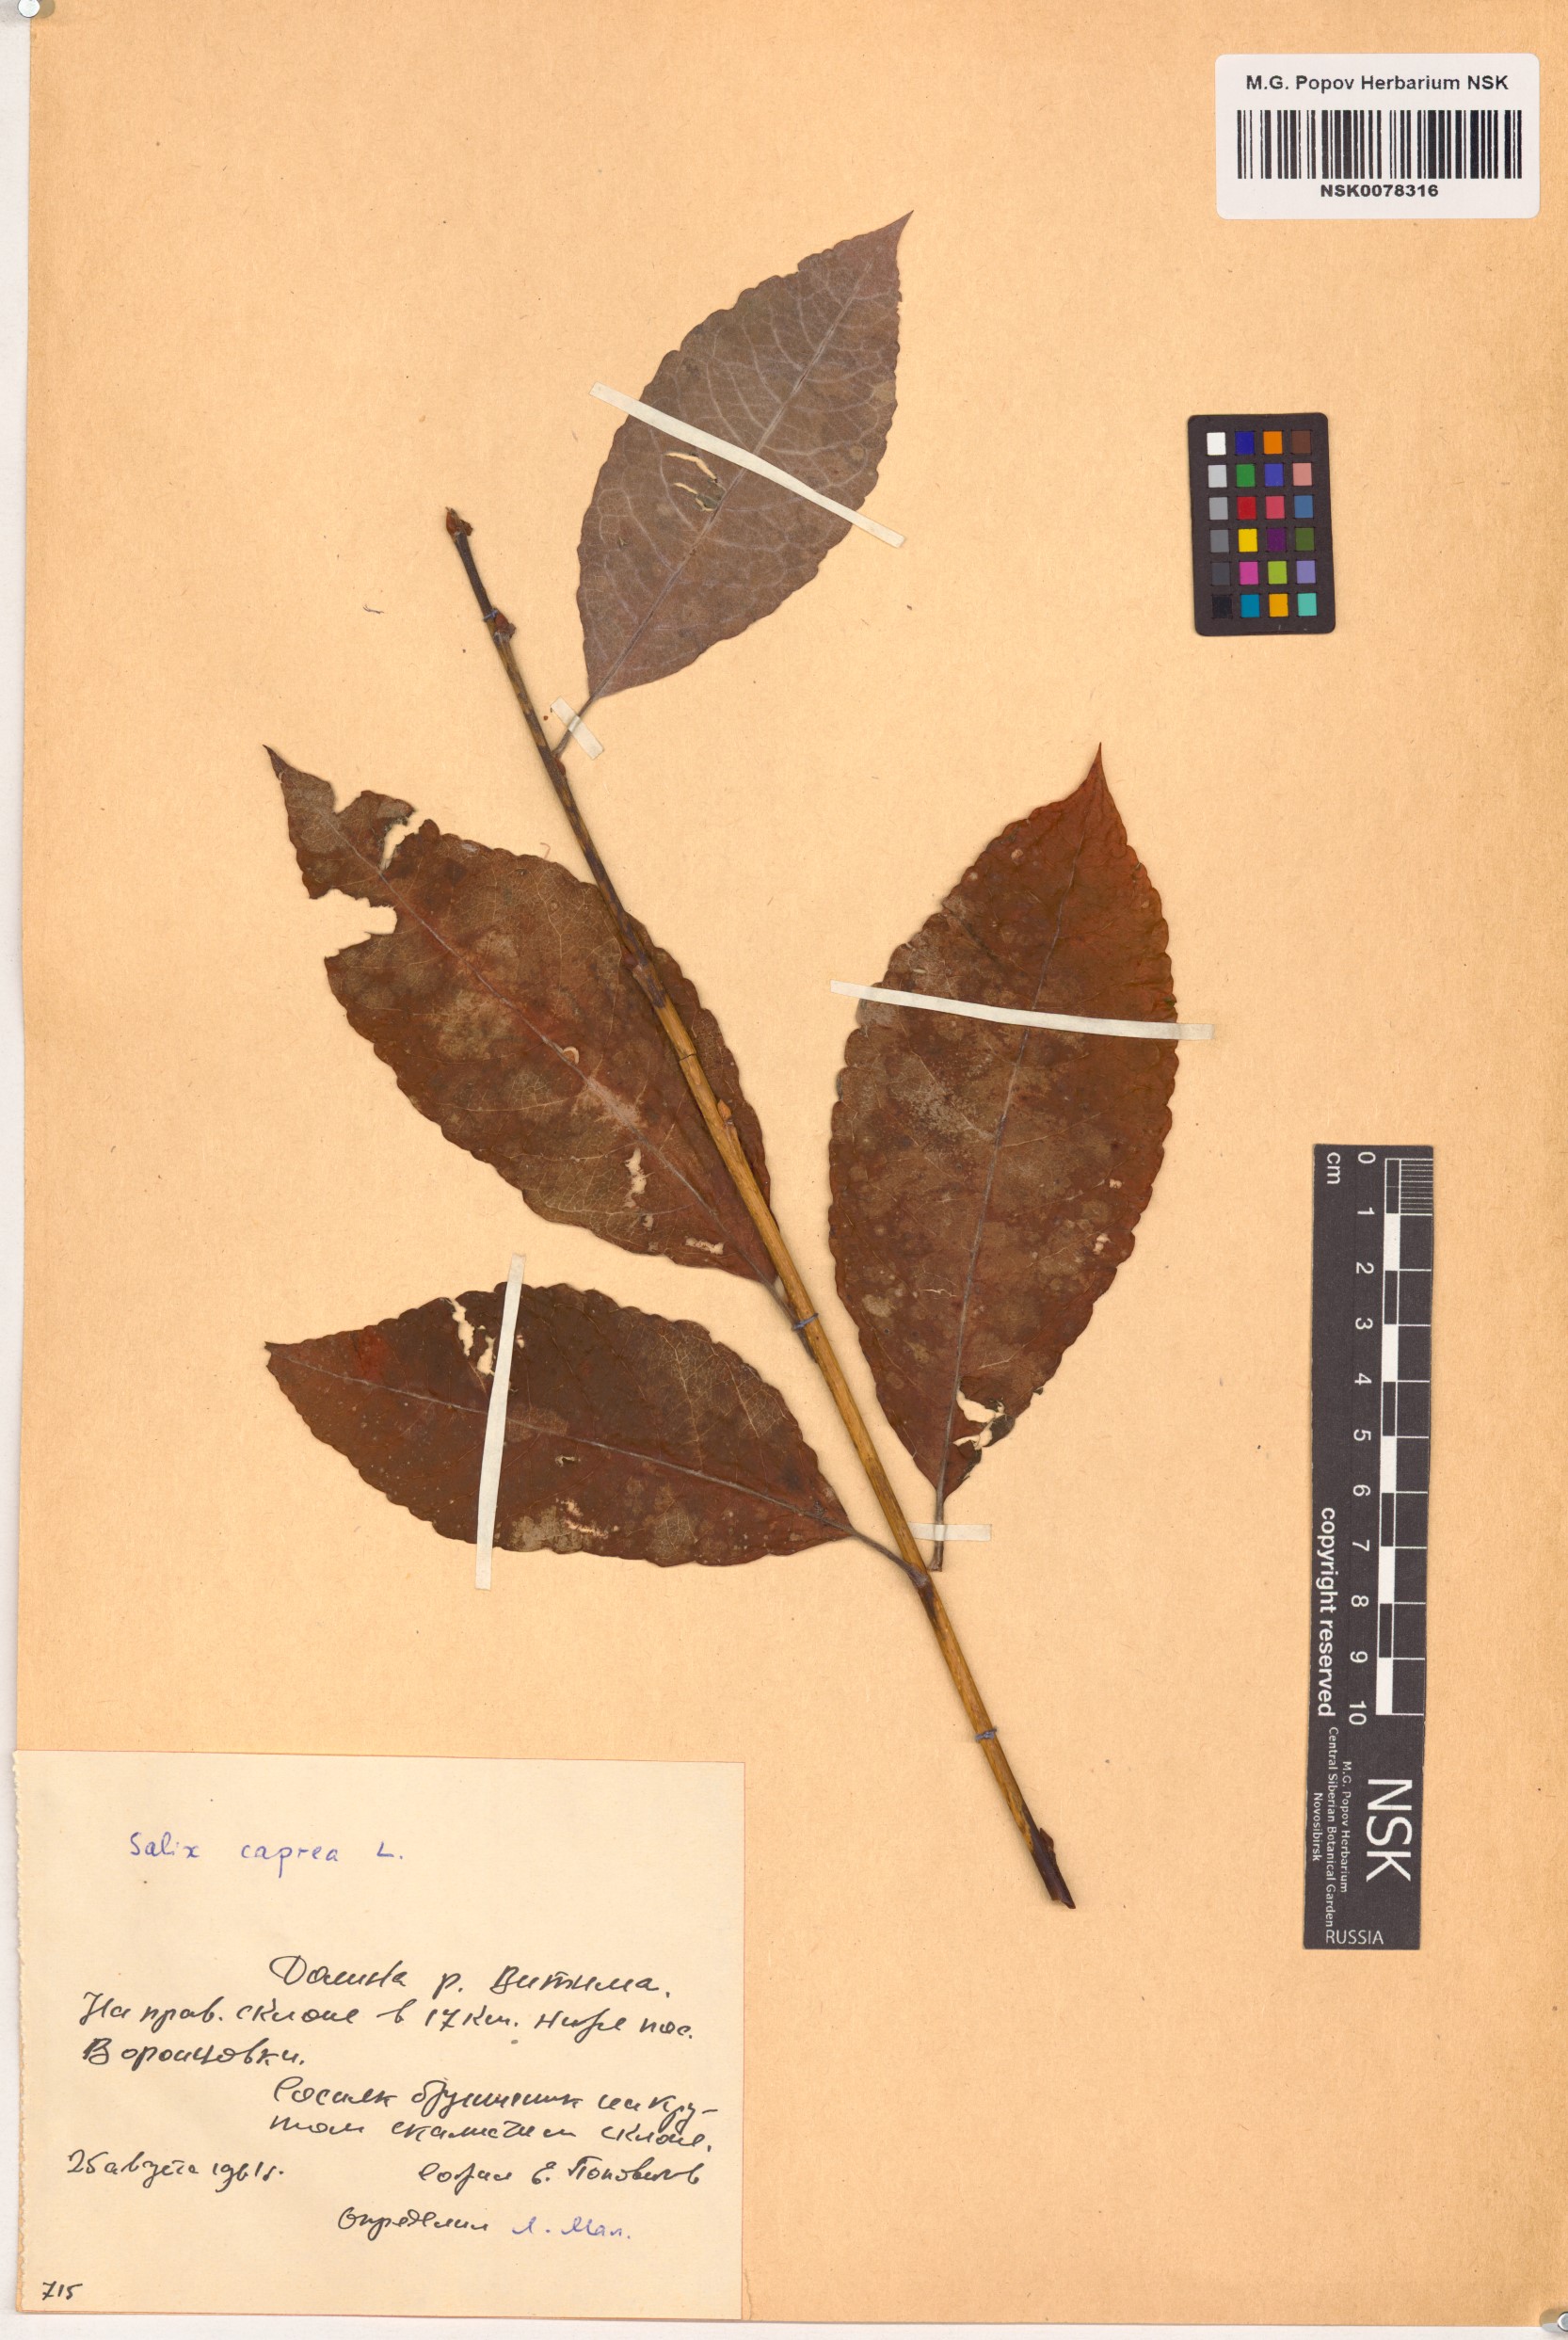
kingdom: Plantae
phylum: Tracheophyta
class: Magnoliopsida
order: Malpighiales
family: Salicaceae
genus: Salix
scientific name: Salix caprea
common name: Goat willow
